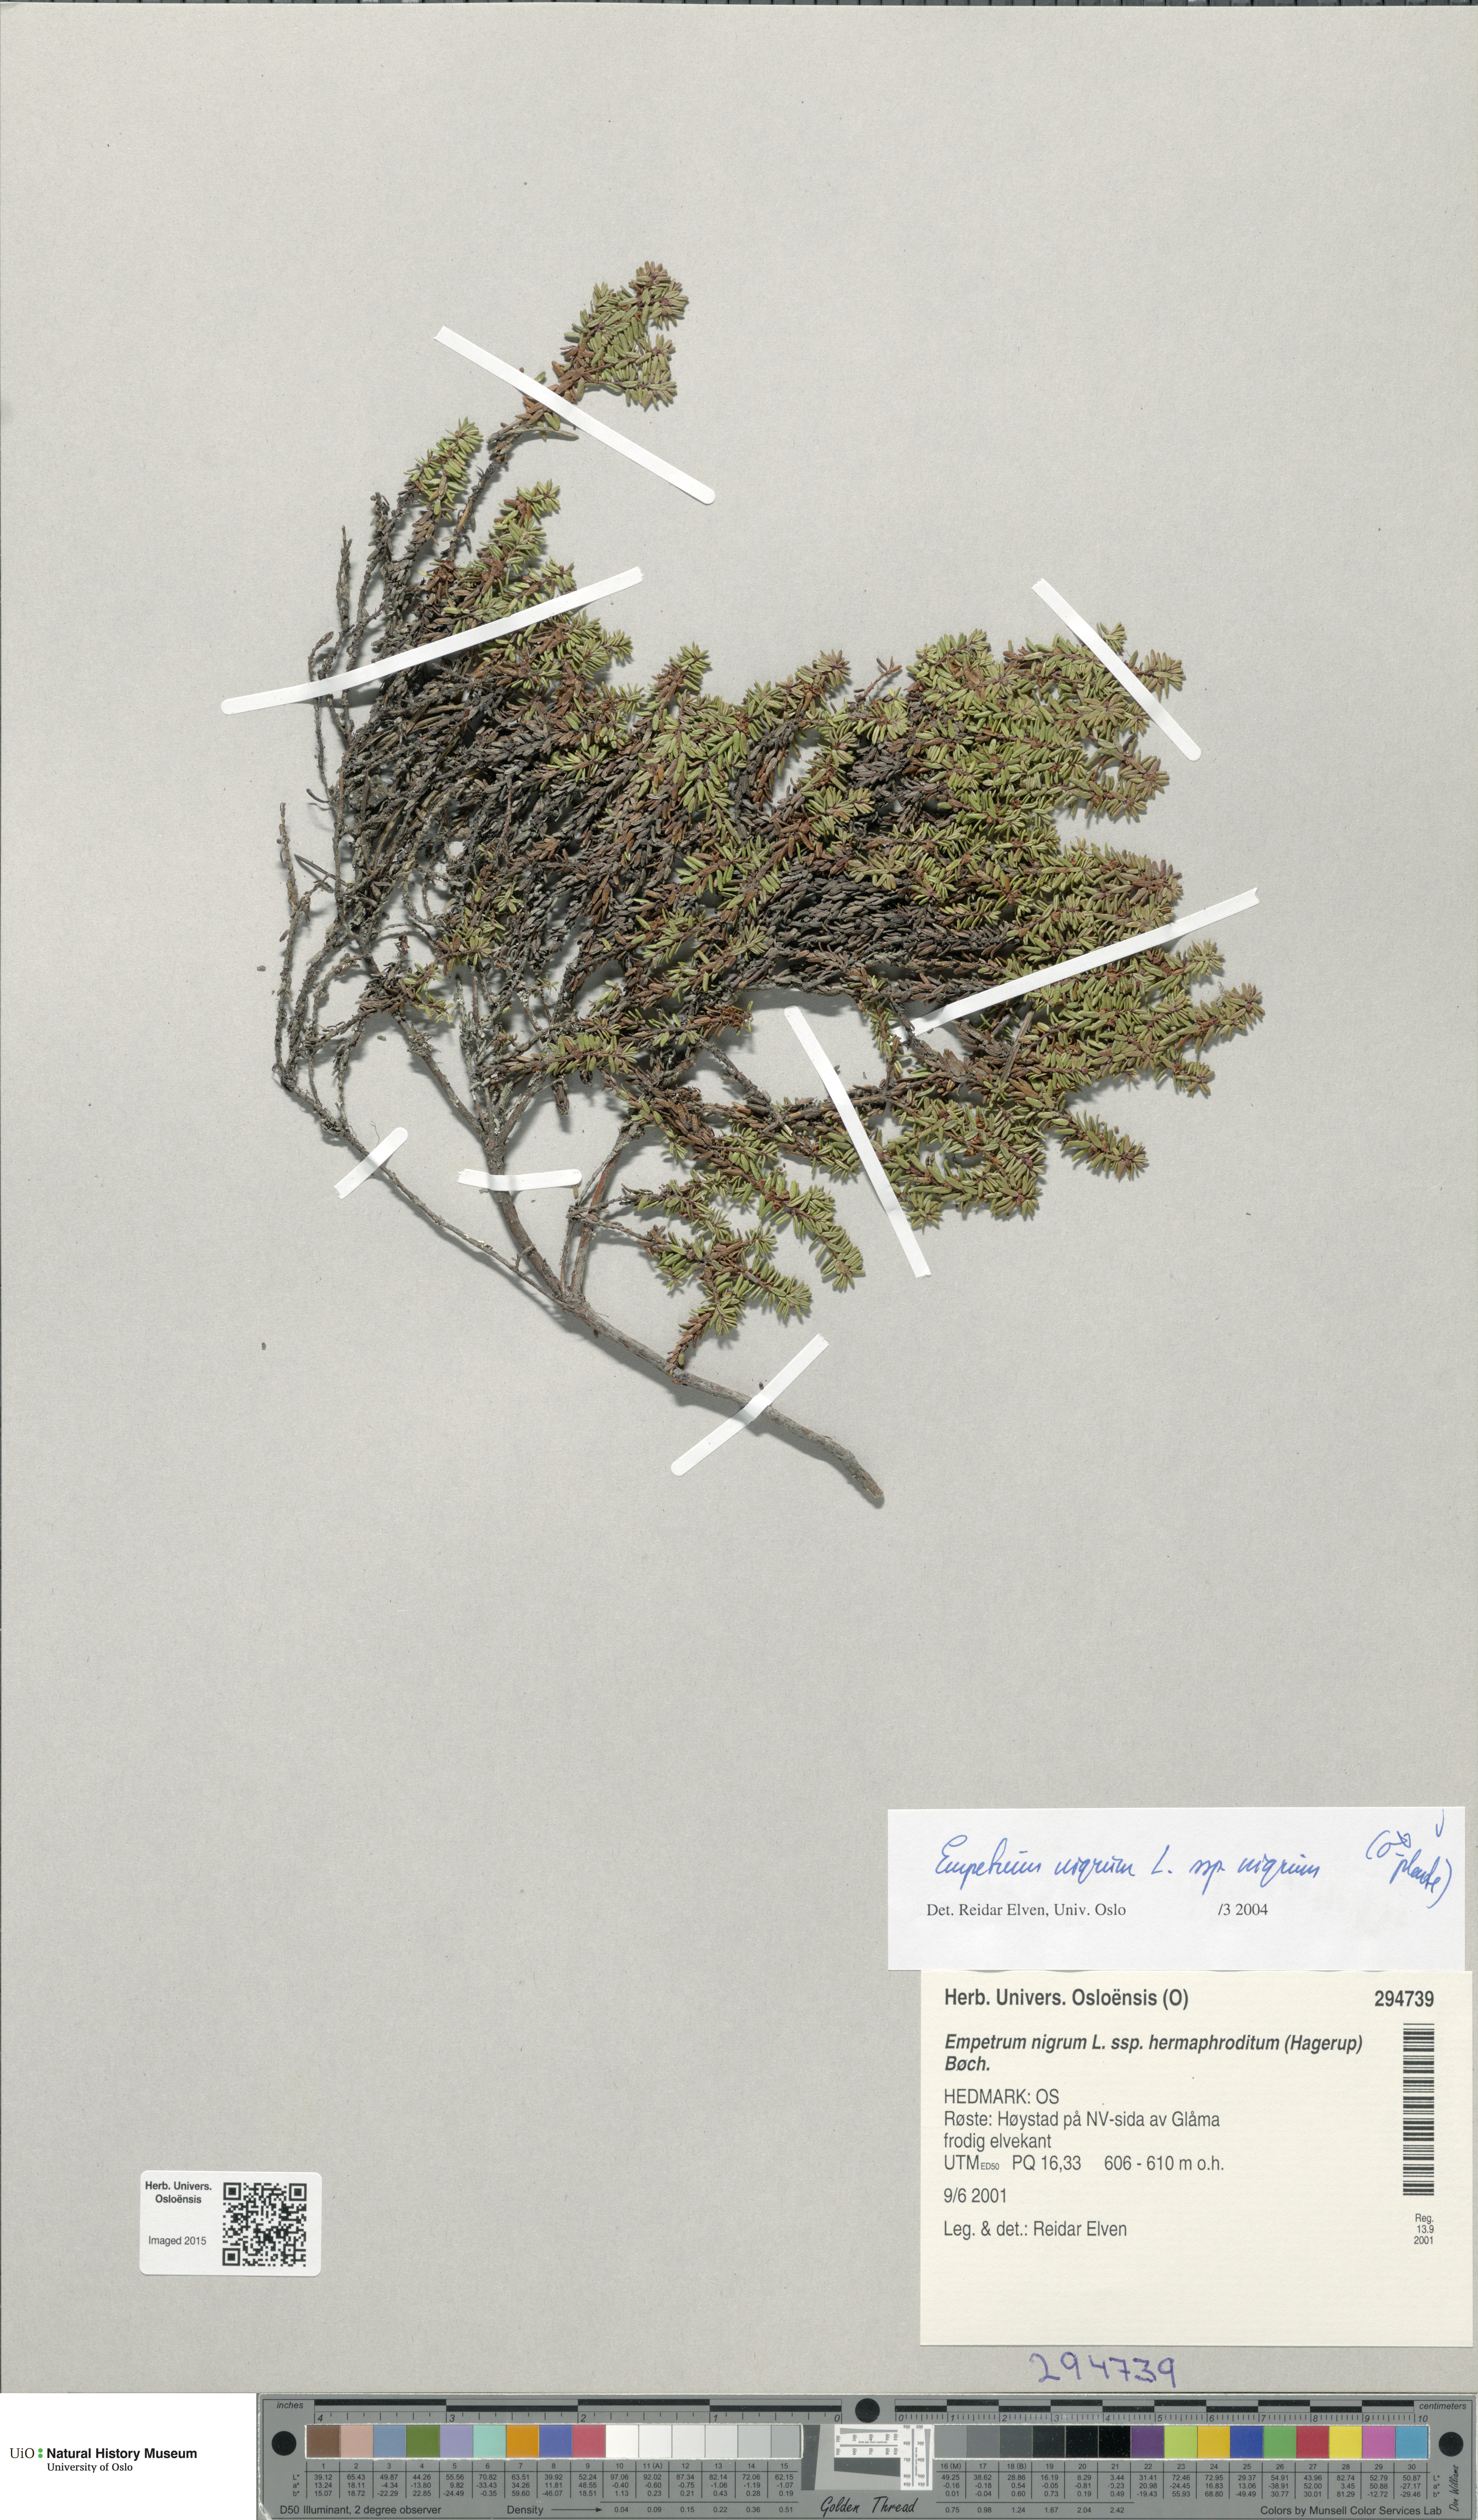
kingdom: Plantae
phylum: Tracheophyta
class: Magnoliopsida
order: Ericales
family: Ericaceae
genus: Empetrum
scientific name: Empetrum nigrum
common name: Black crowberry
